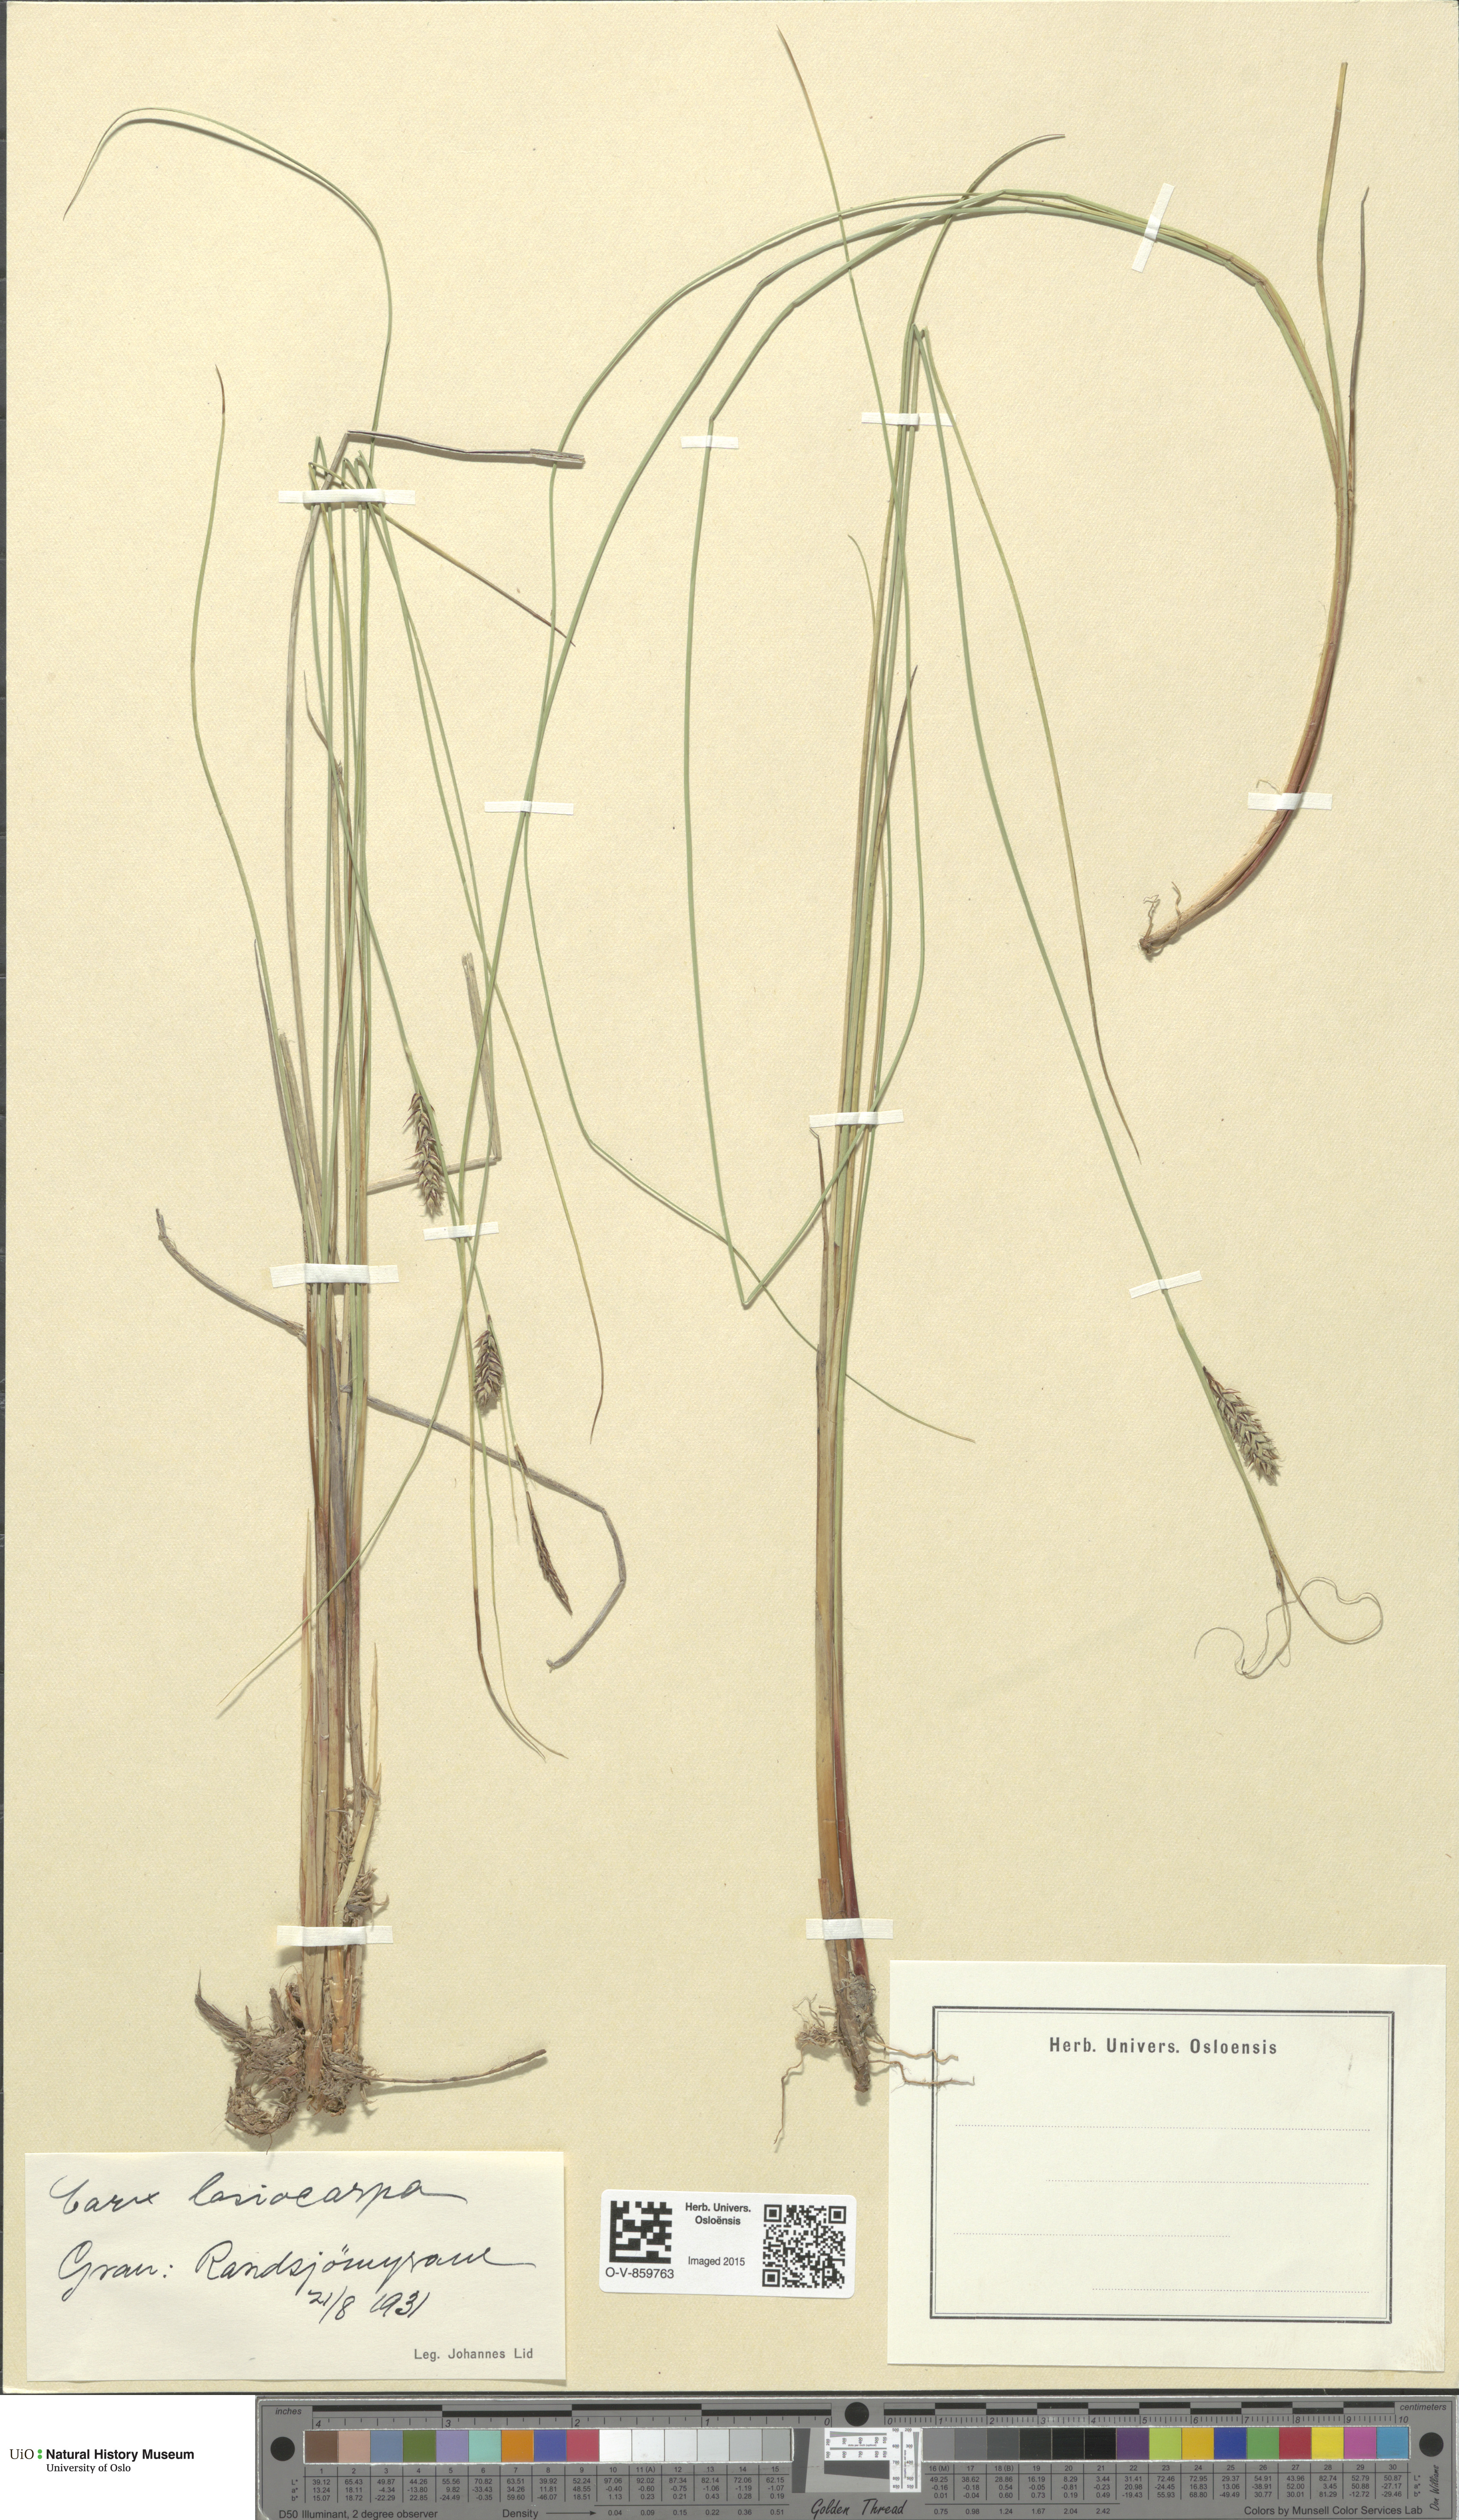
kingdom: Plantae
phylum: Tracheophyta
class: Liliopsida
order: Poales
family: Cyperaceae
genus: Carex
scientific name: Carex lasiocarpa
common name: Slender sedge
